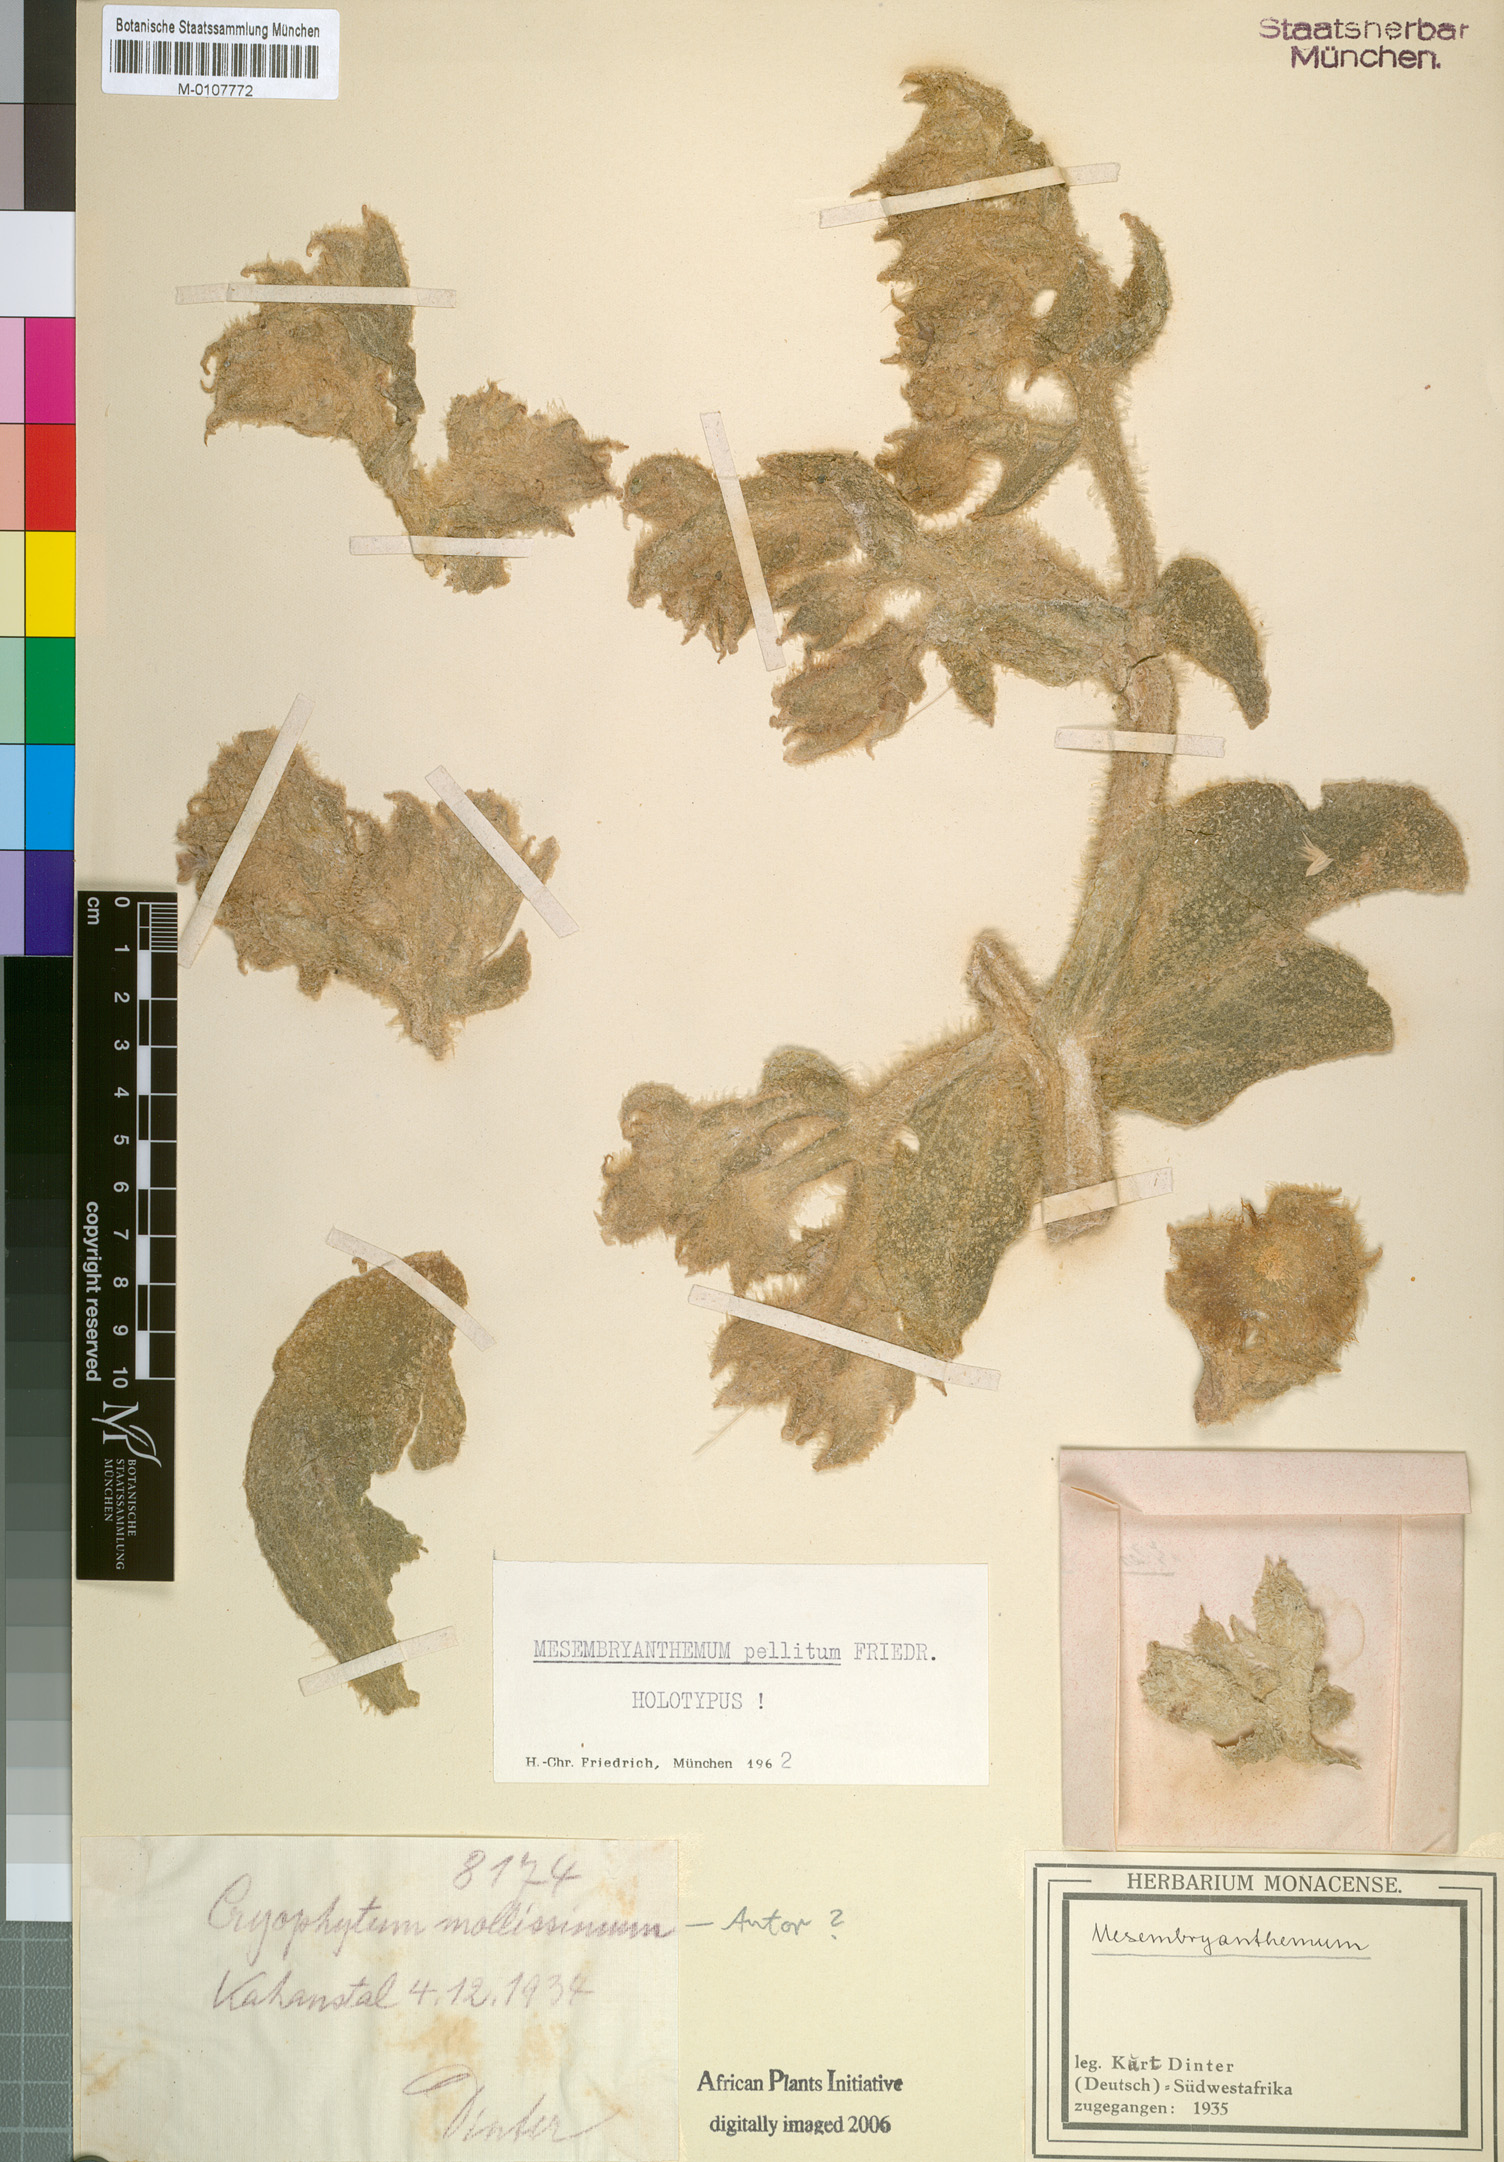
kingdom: Plantae
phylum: Tracheophyta
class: Magnoliopsida
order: Caryophyllales
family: Aizoaceae
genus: Mesembryanthemum
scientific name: Mesembryanthemum pellitum
